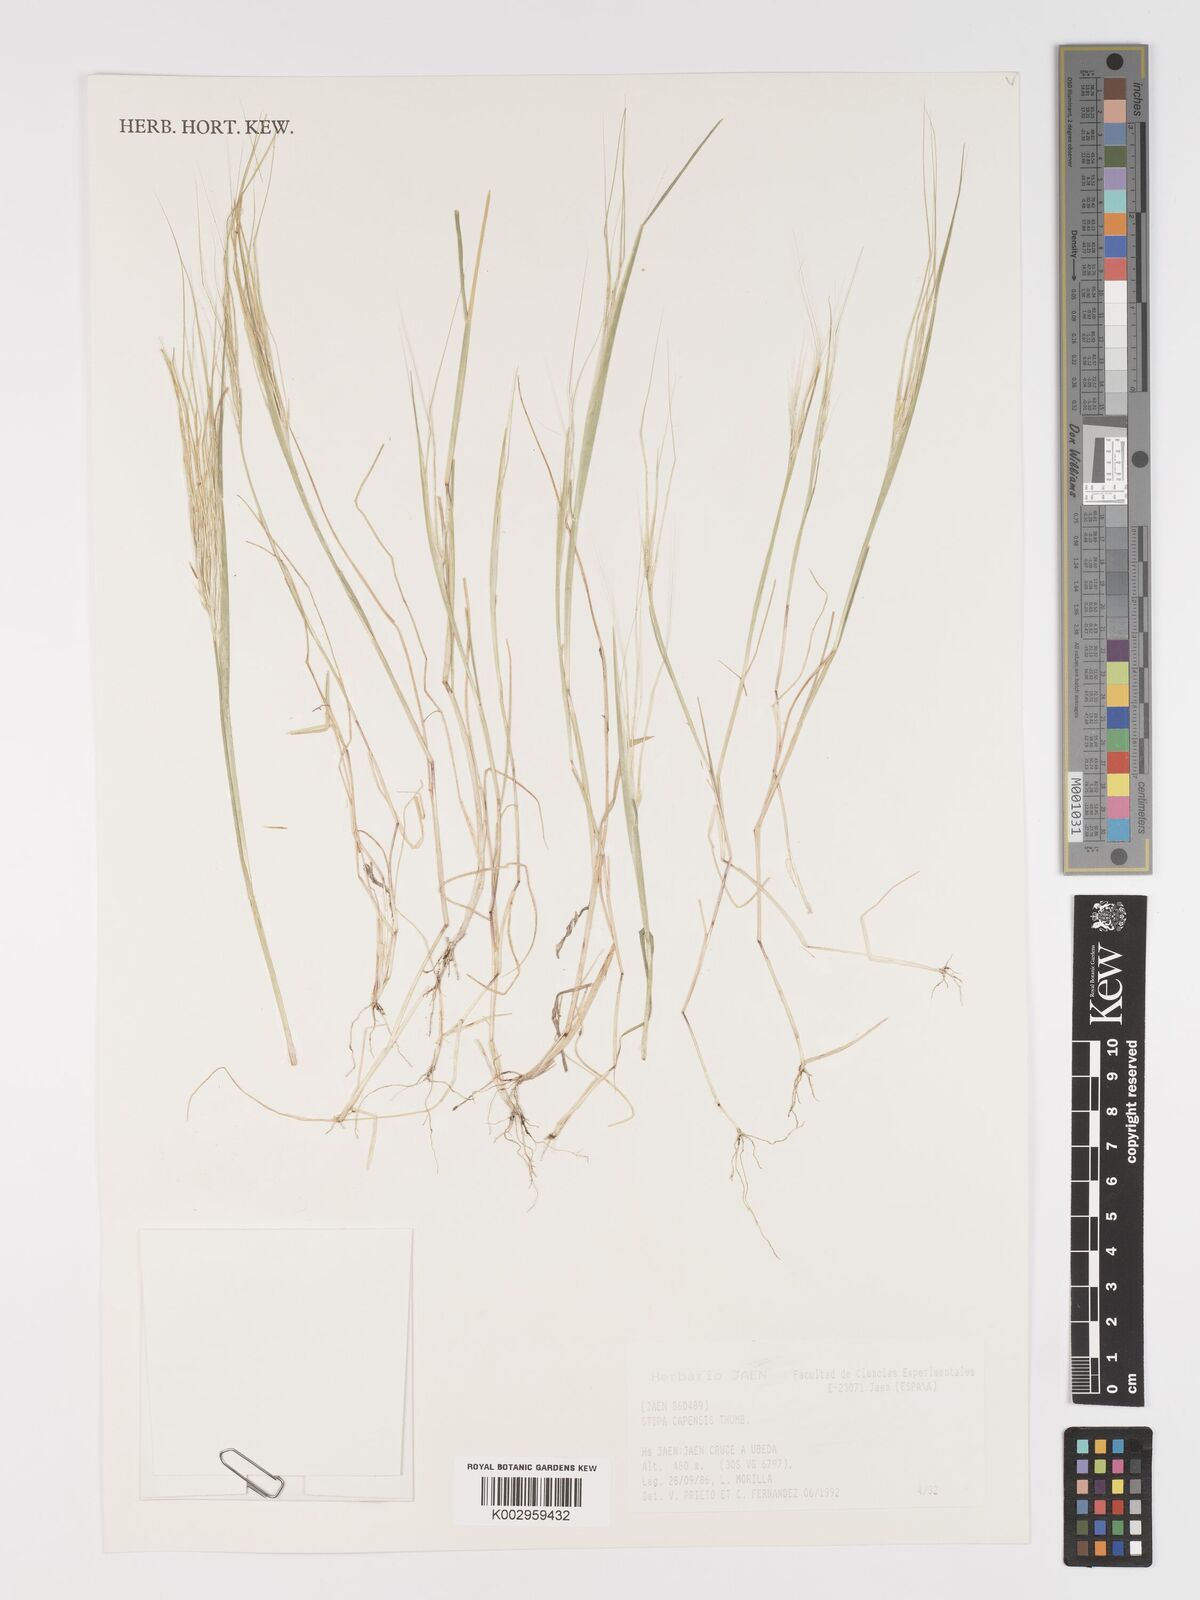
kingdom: Plantae
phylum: Tracheophyta
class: Liliopsida
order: Poales
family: Poaceae
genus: Stipa
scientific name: Stipa
